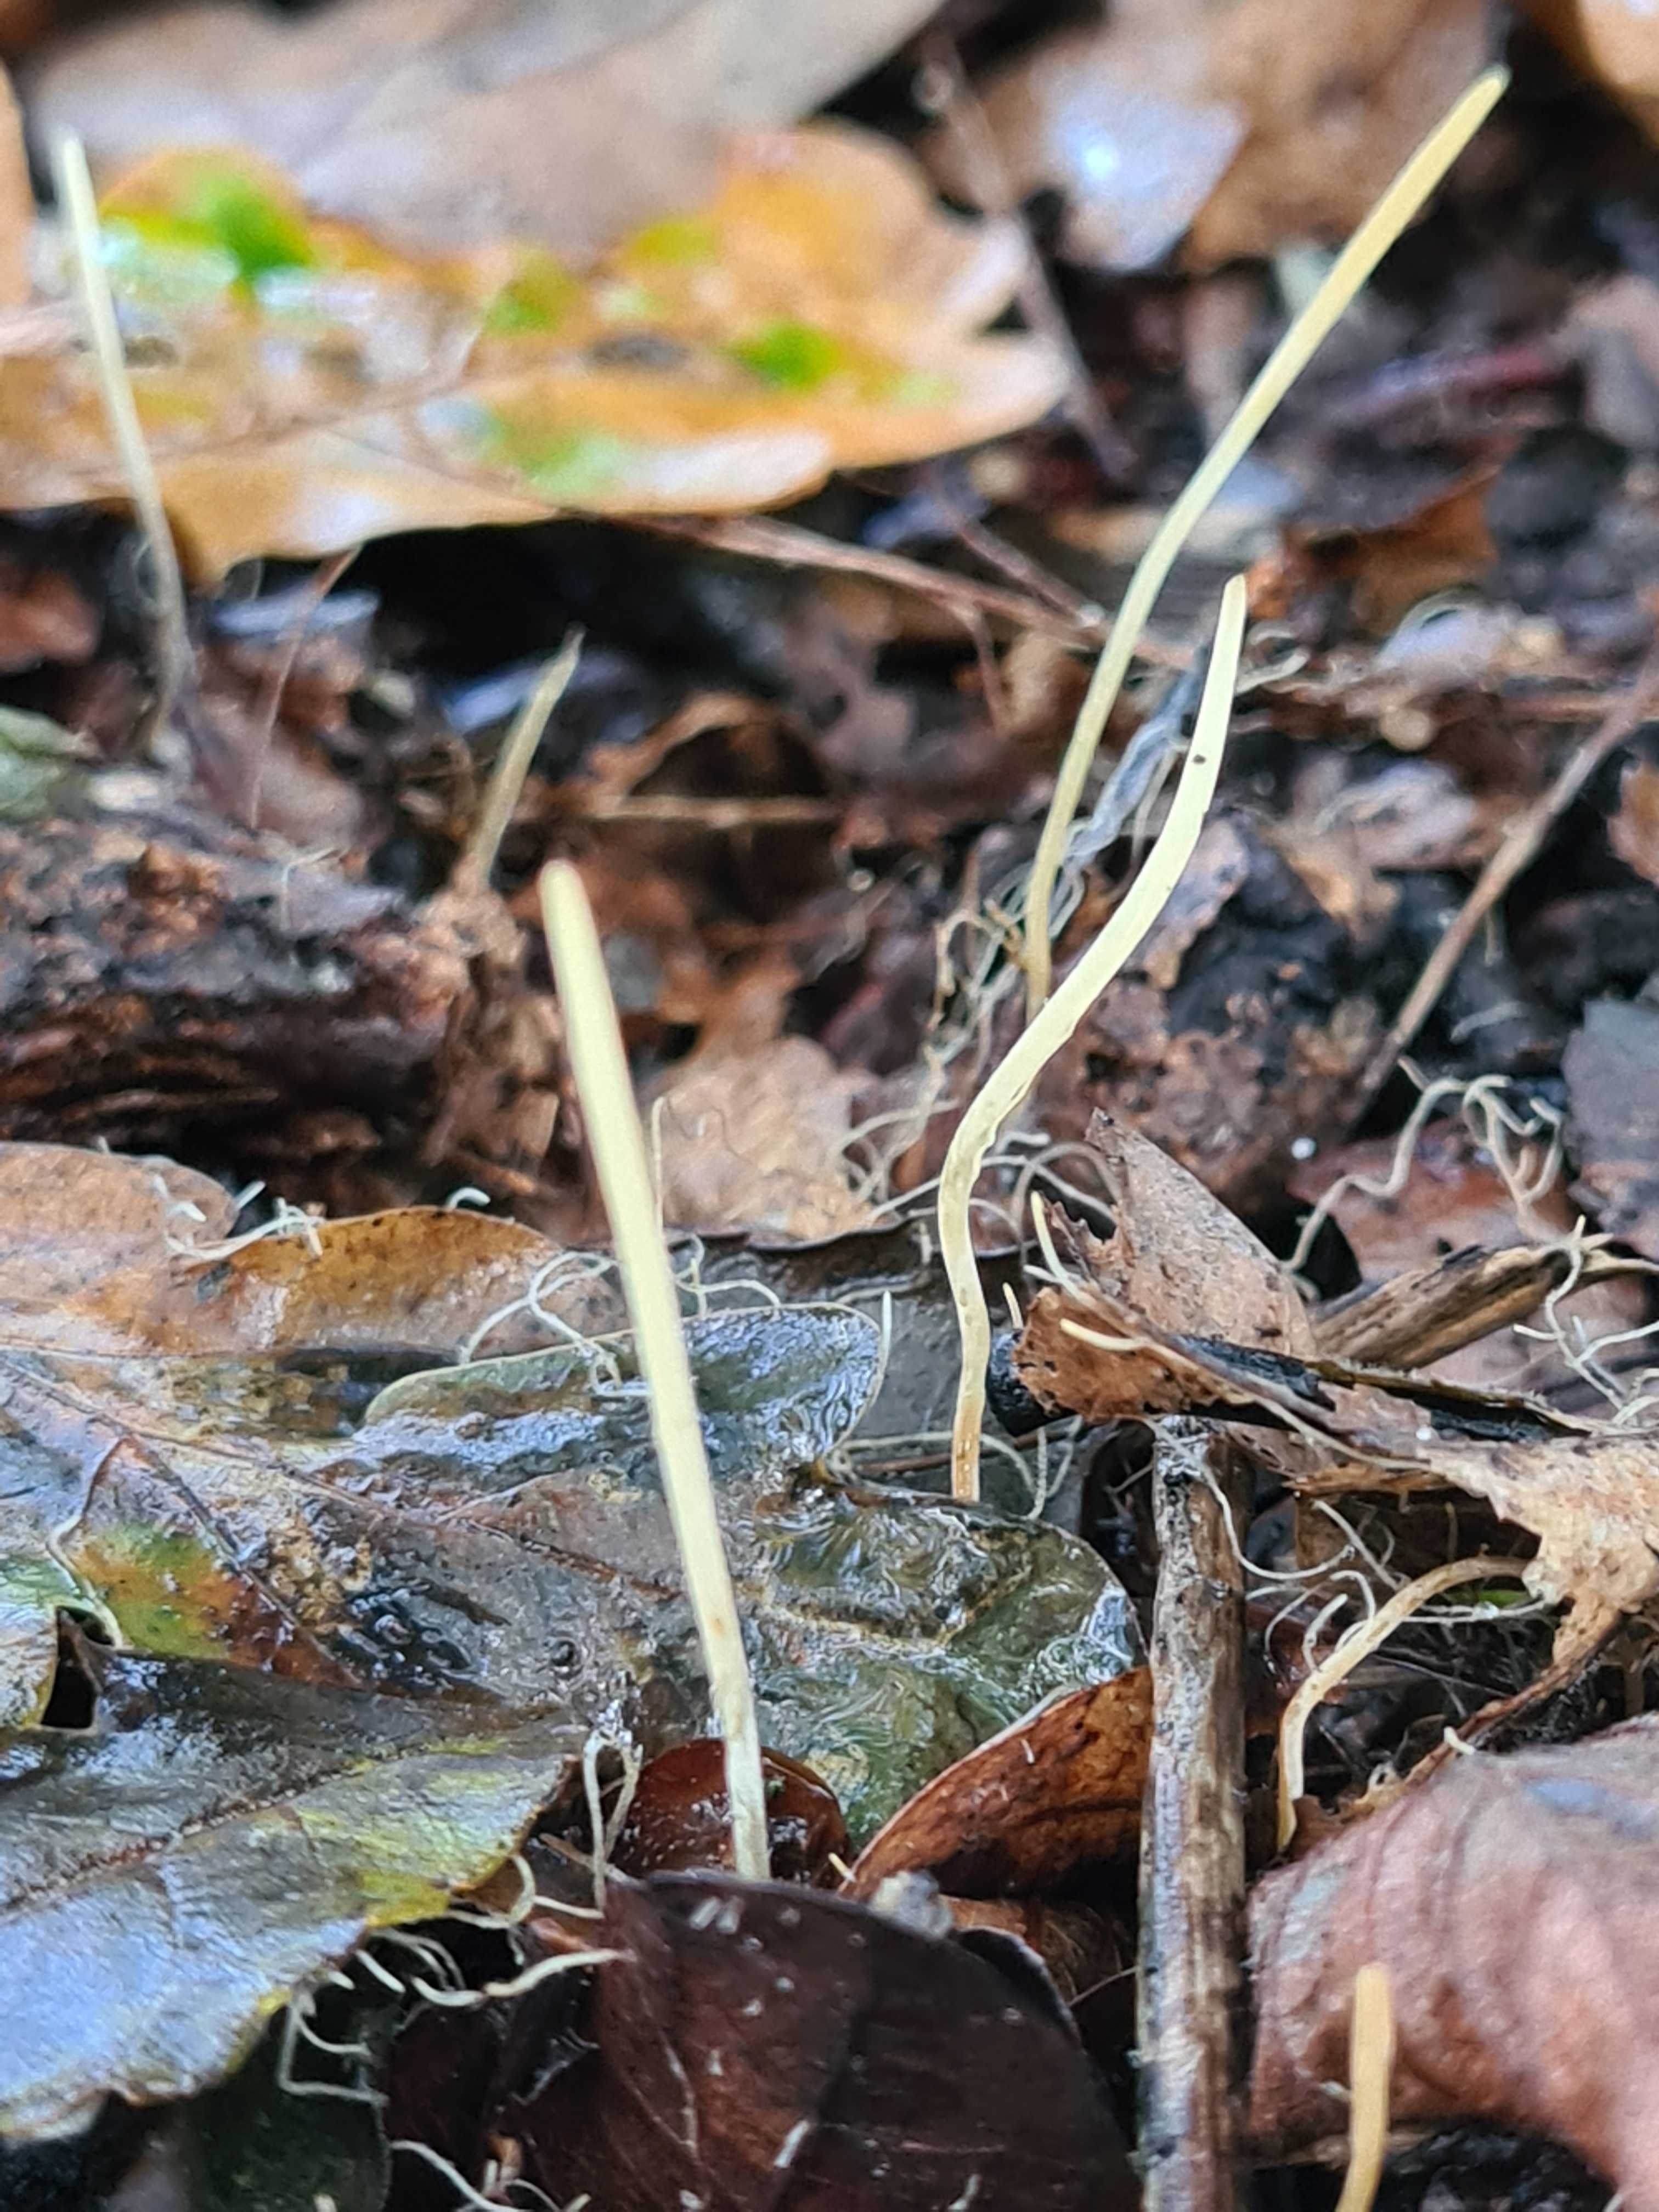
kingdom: Fungi
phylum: Basidiomycota
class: Agaricomycetes
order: Agaricales
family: Typhulaceae
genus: Typhula
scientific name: Typhula juncea
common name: trådagtig rørkølle
